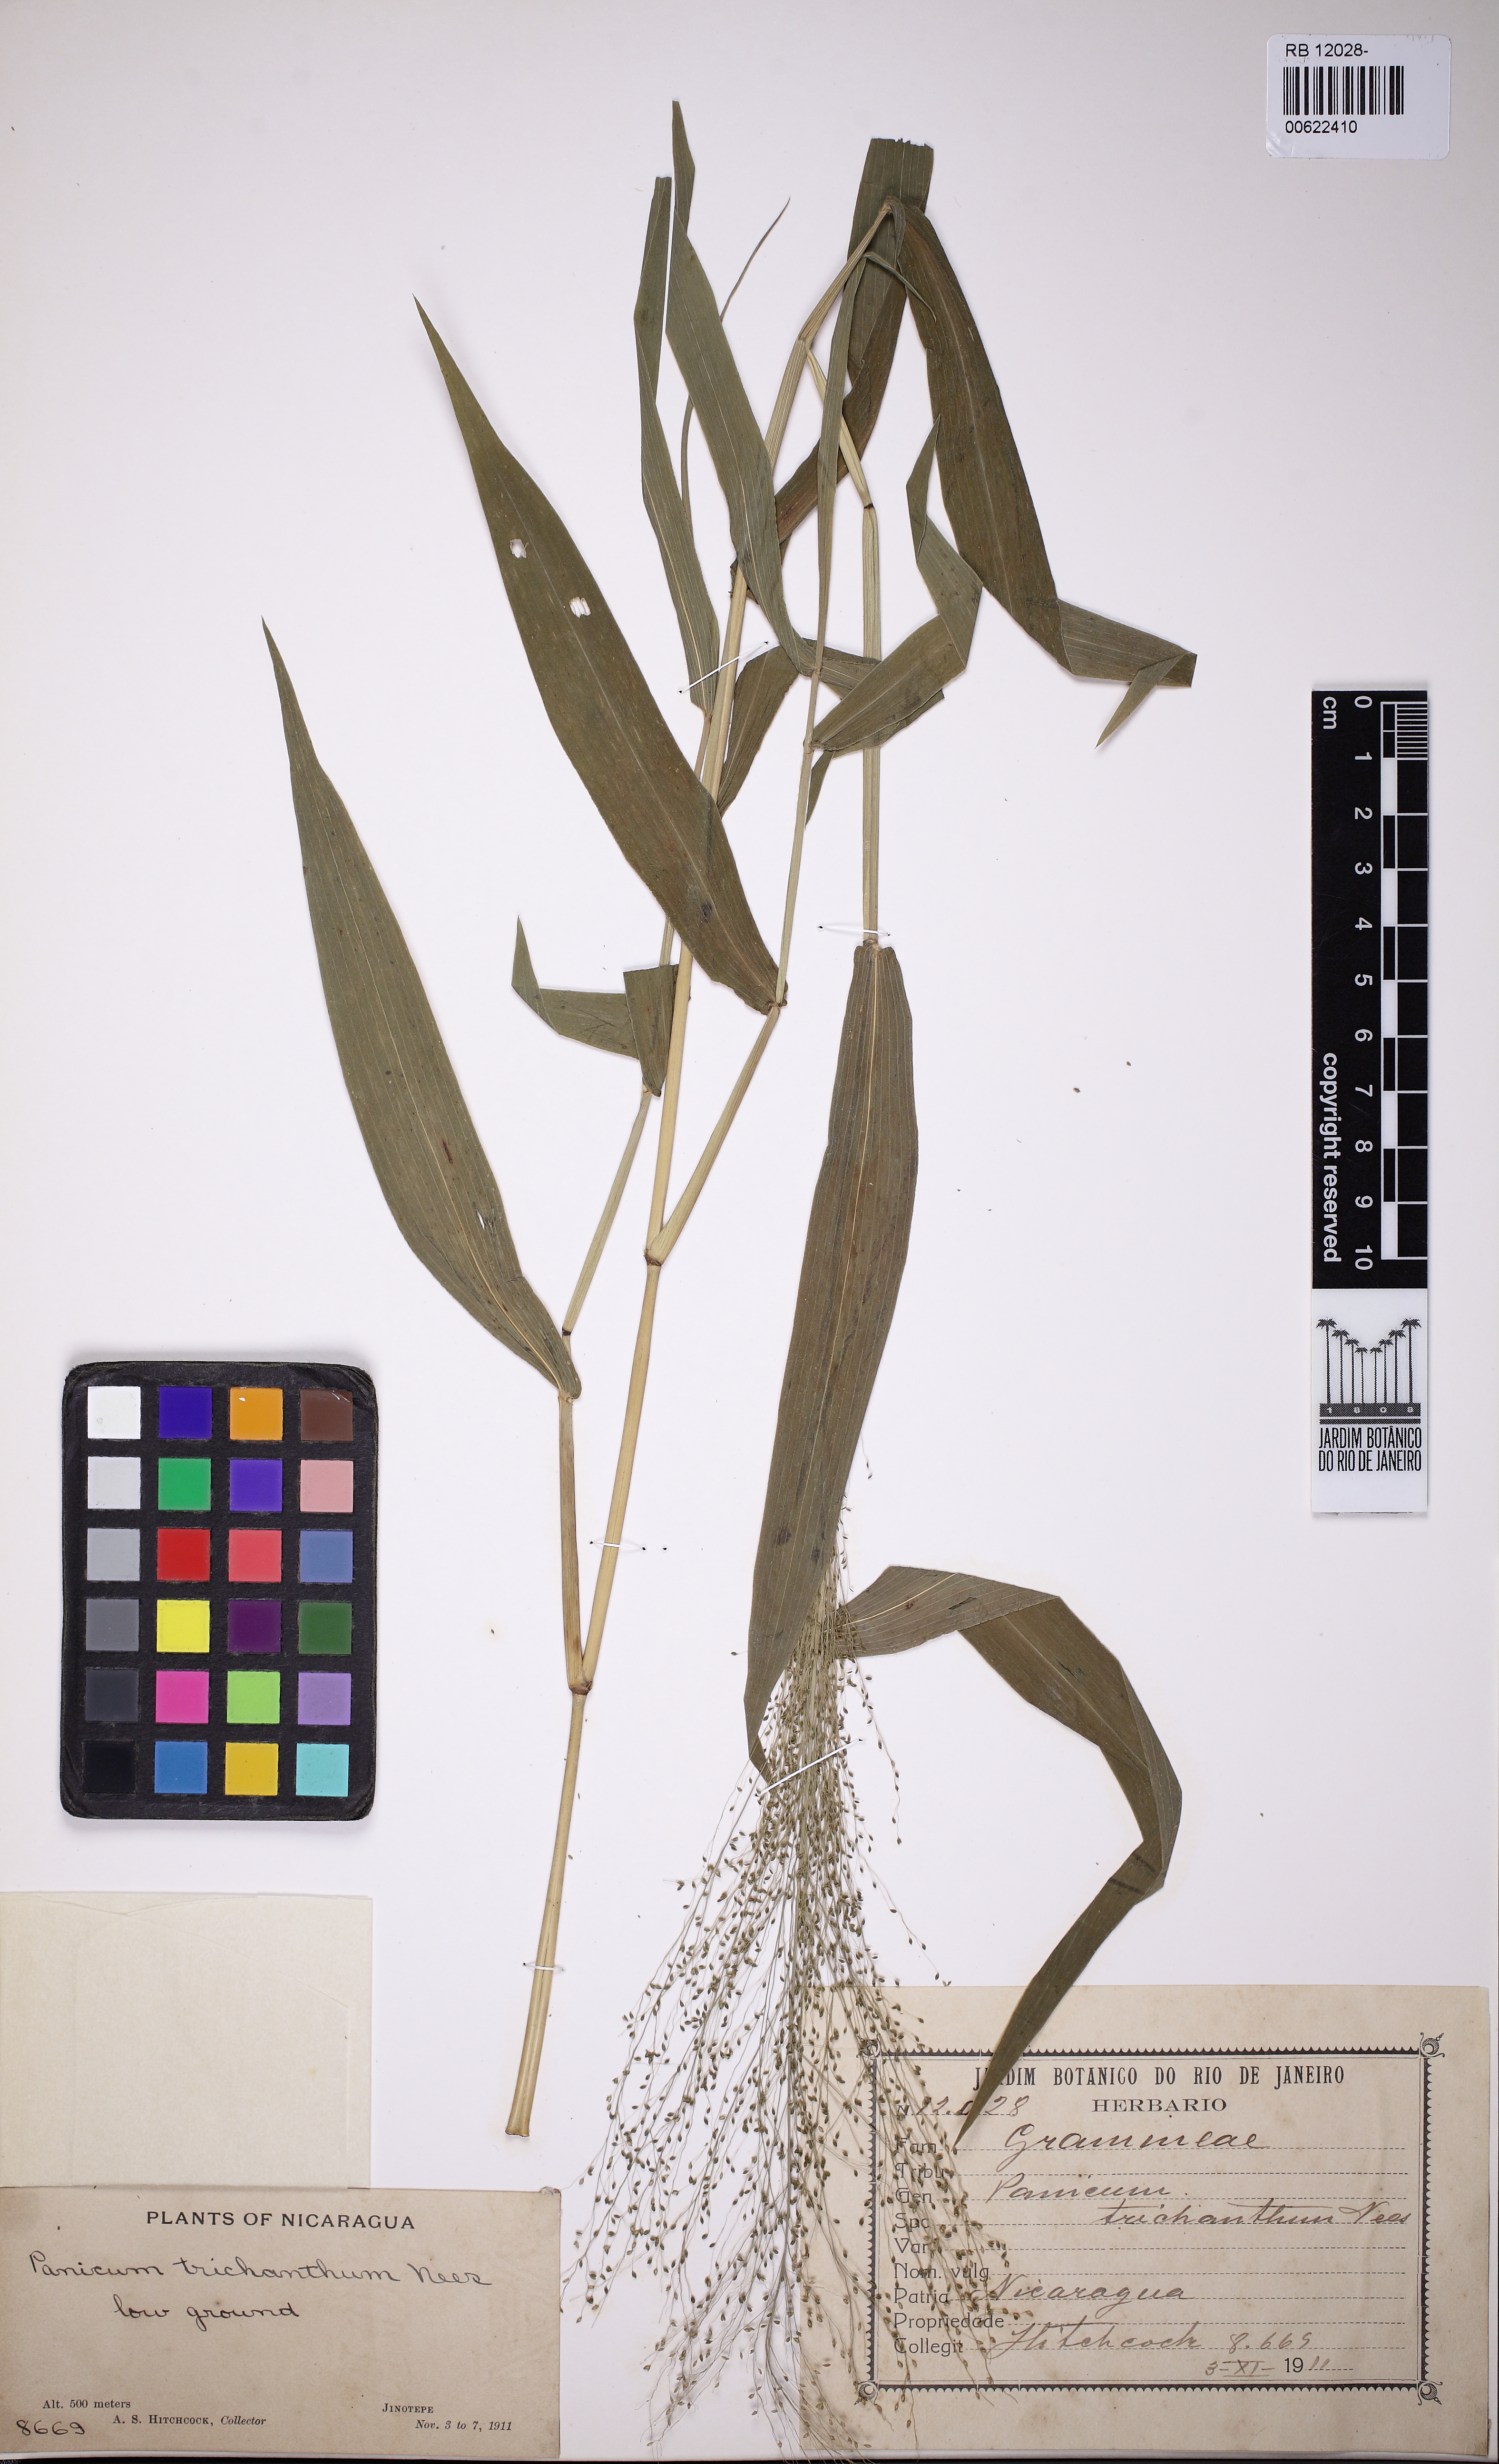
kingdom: Plantae
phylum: Tracheophyta
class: Liliopsida
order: Poales
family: Poaceae
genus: Panicum
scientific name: Panicum trichanthum
